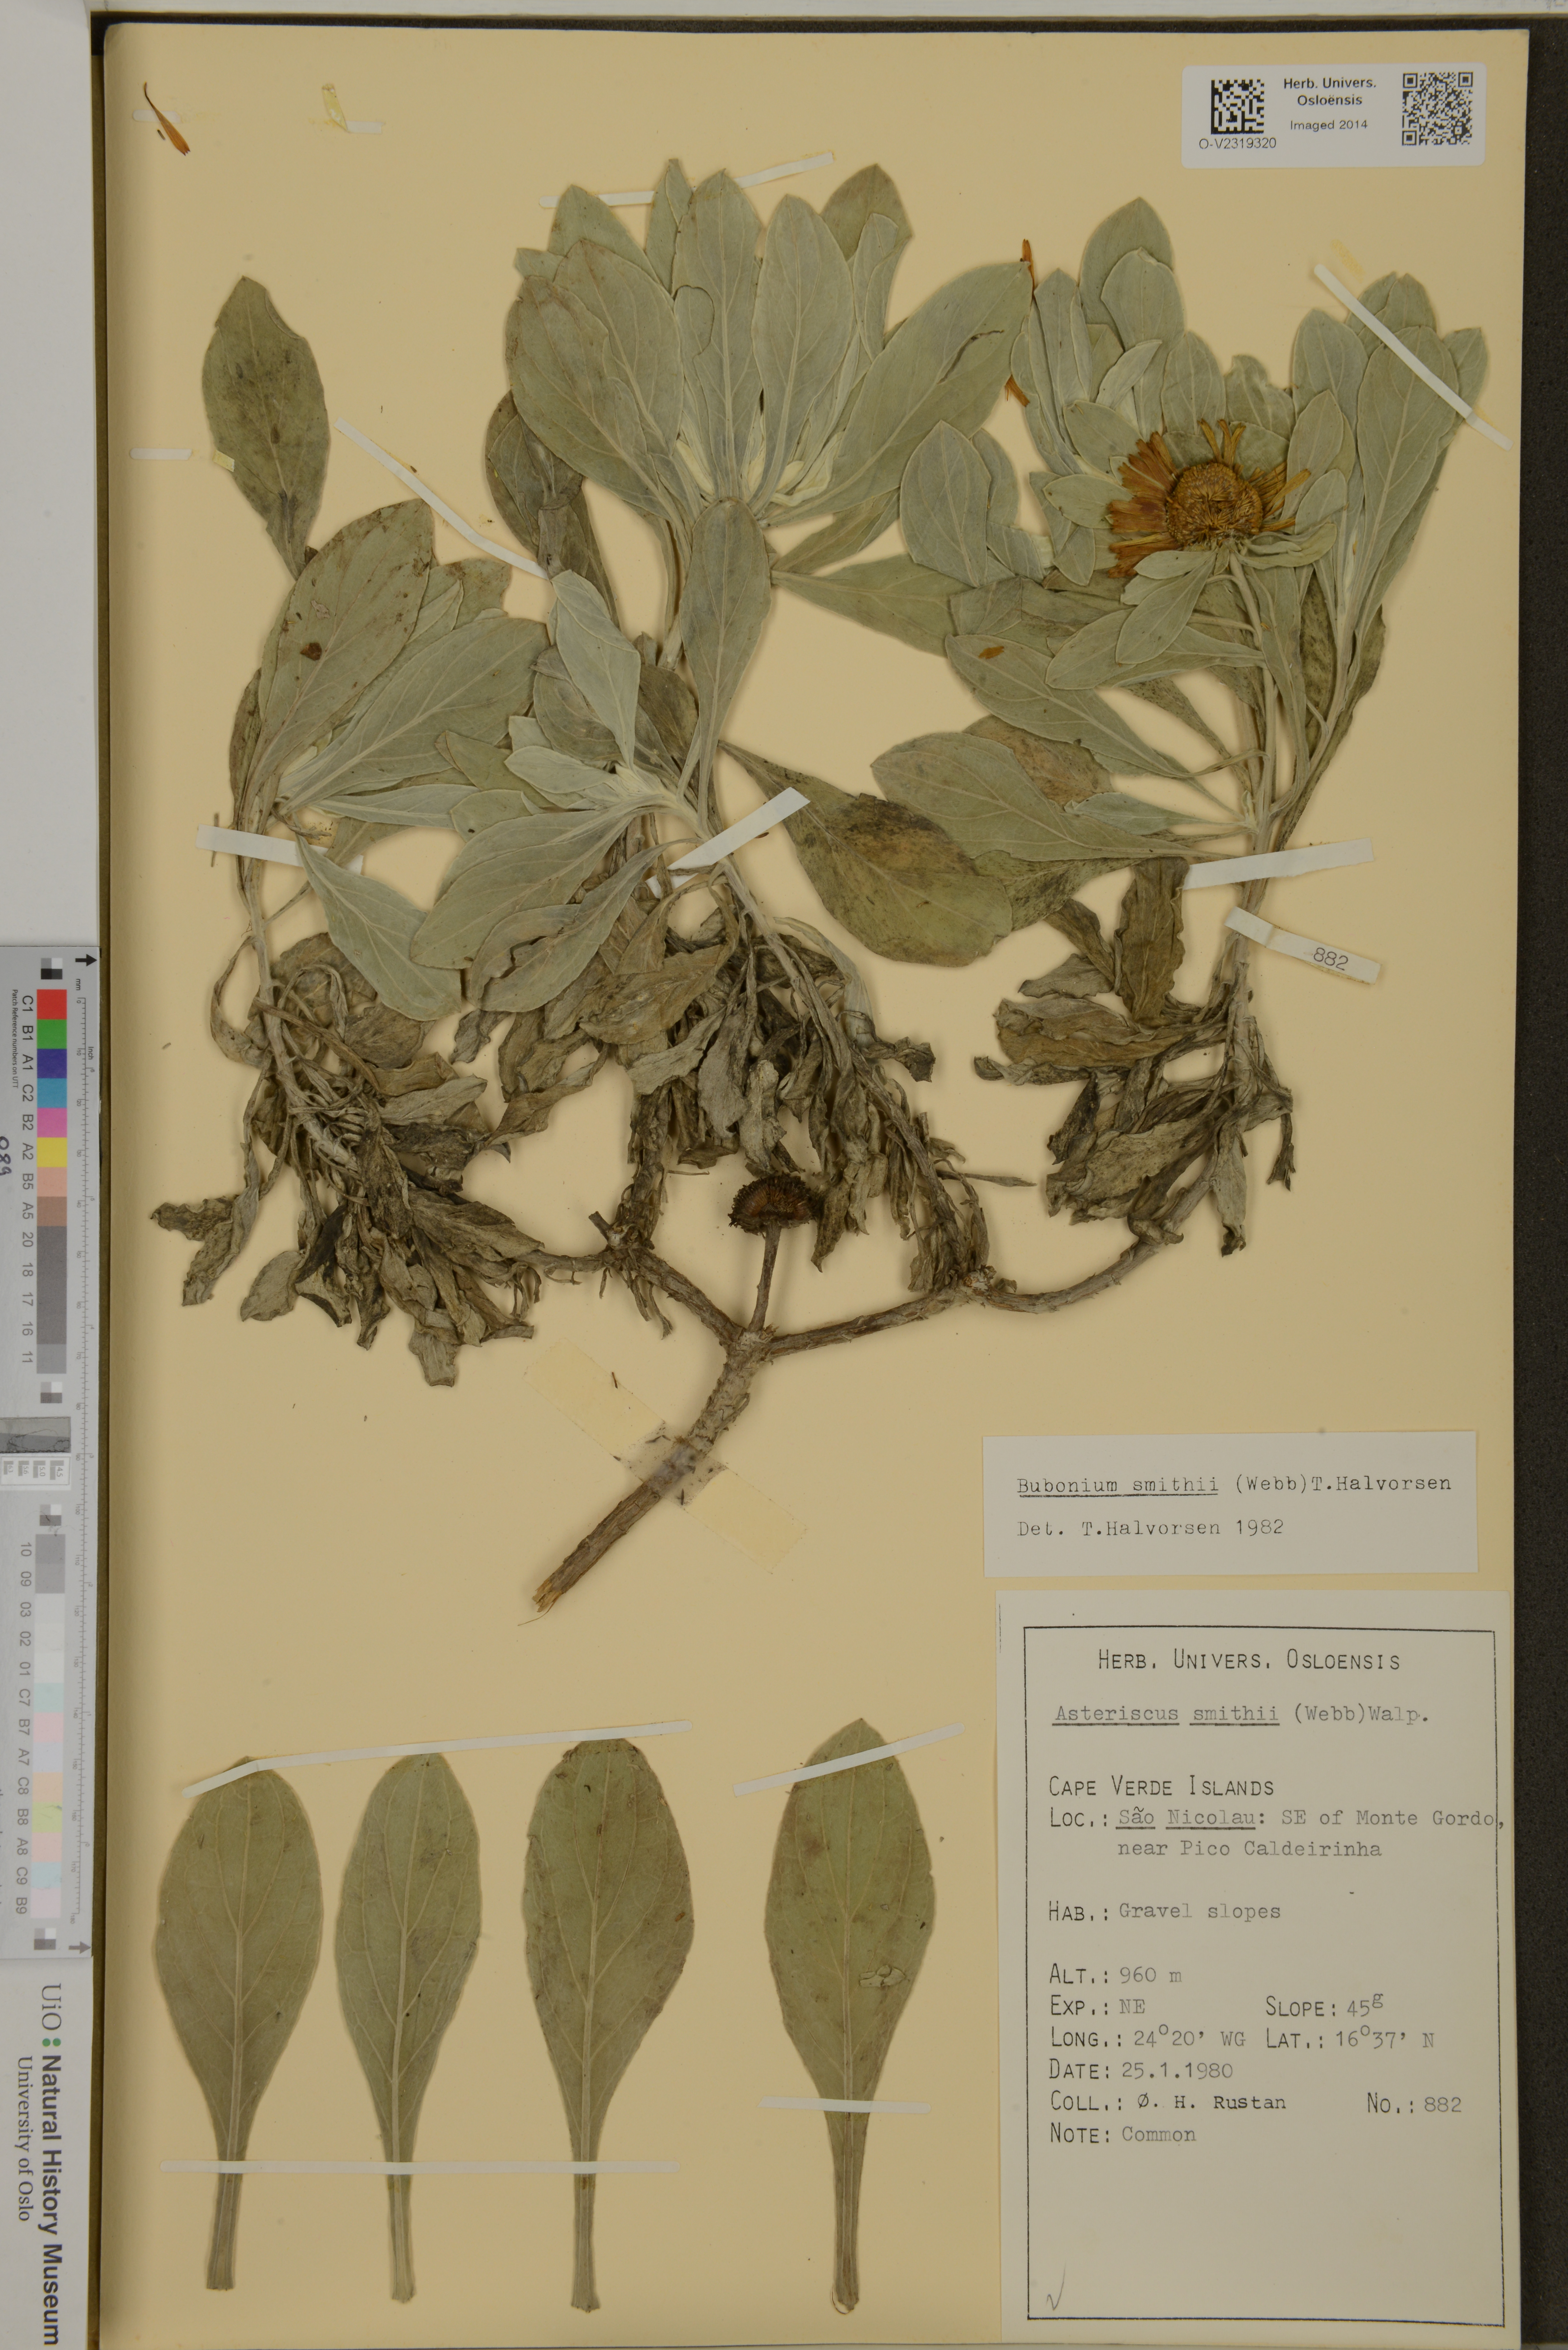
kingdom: Plantae
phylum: Tracheophyta
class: Magnoliopsida
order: Asterales
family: Asteraceae
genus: Asteriscus
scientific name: Asteriscus smithii
